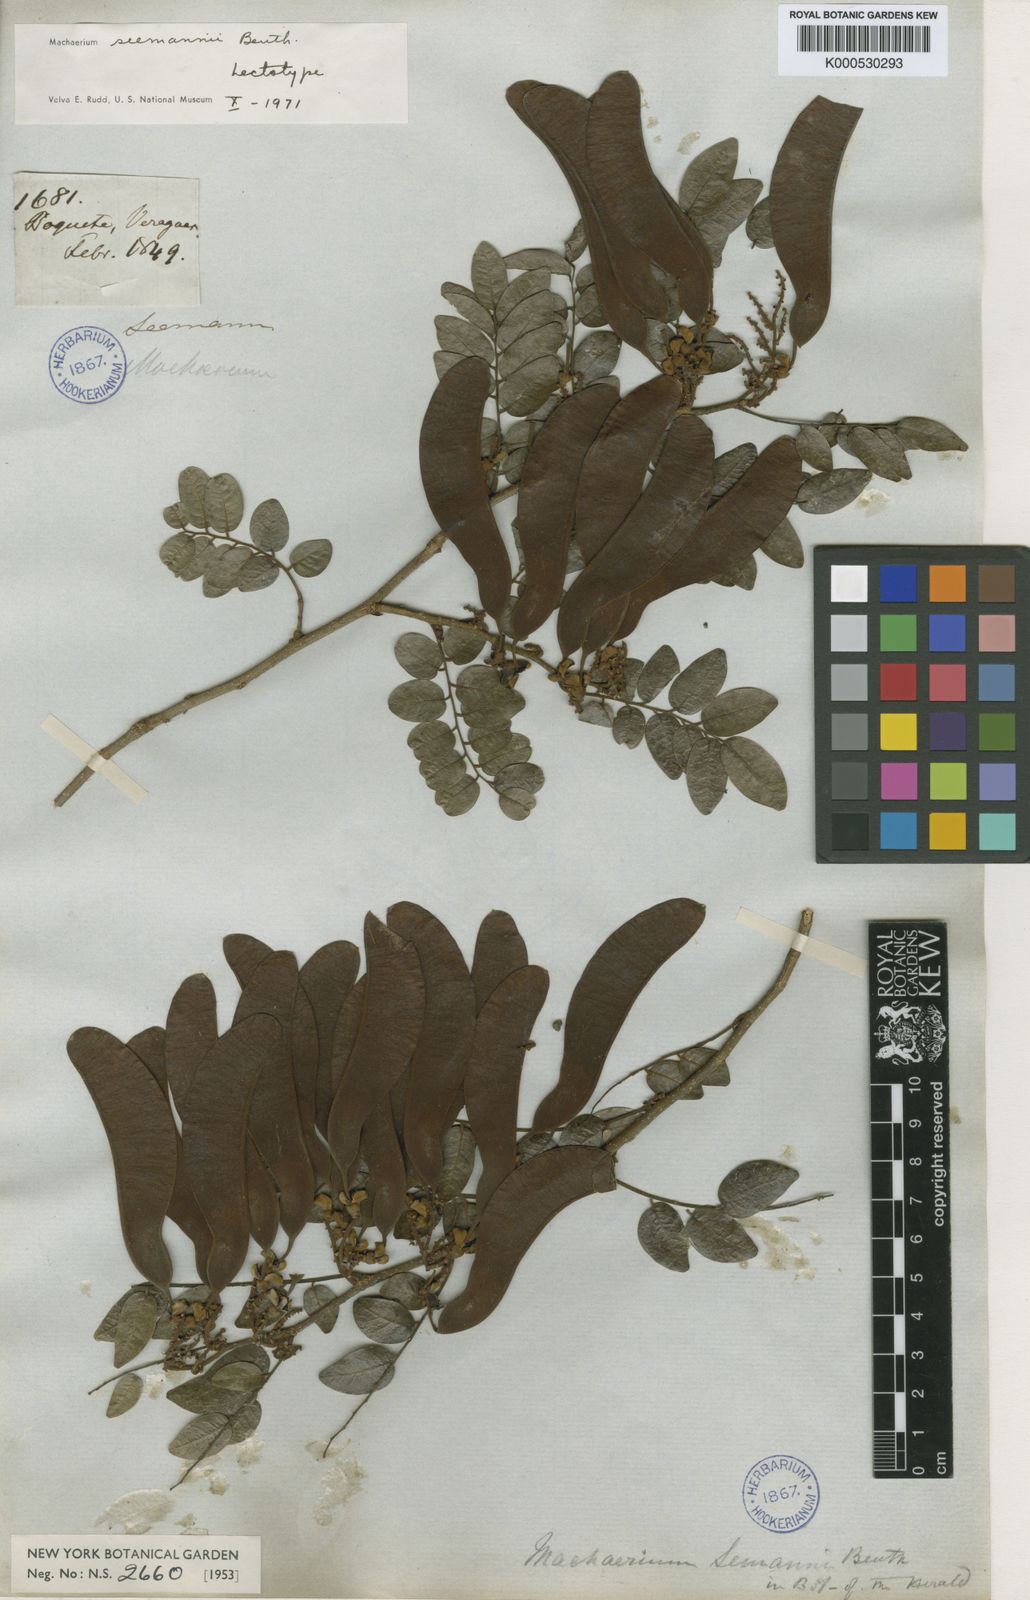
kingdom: Plantae
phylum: Tracheophyta
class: Magnoliopsida
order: Fabales
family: Fabaceae
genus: Machaerium
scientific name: Machaerium seemannii
